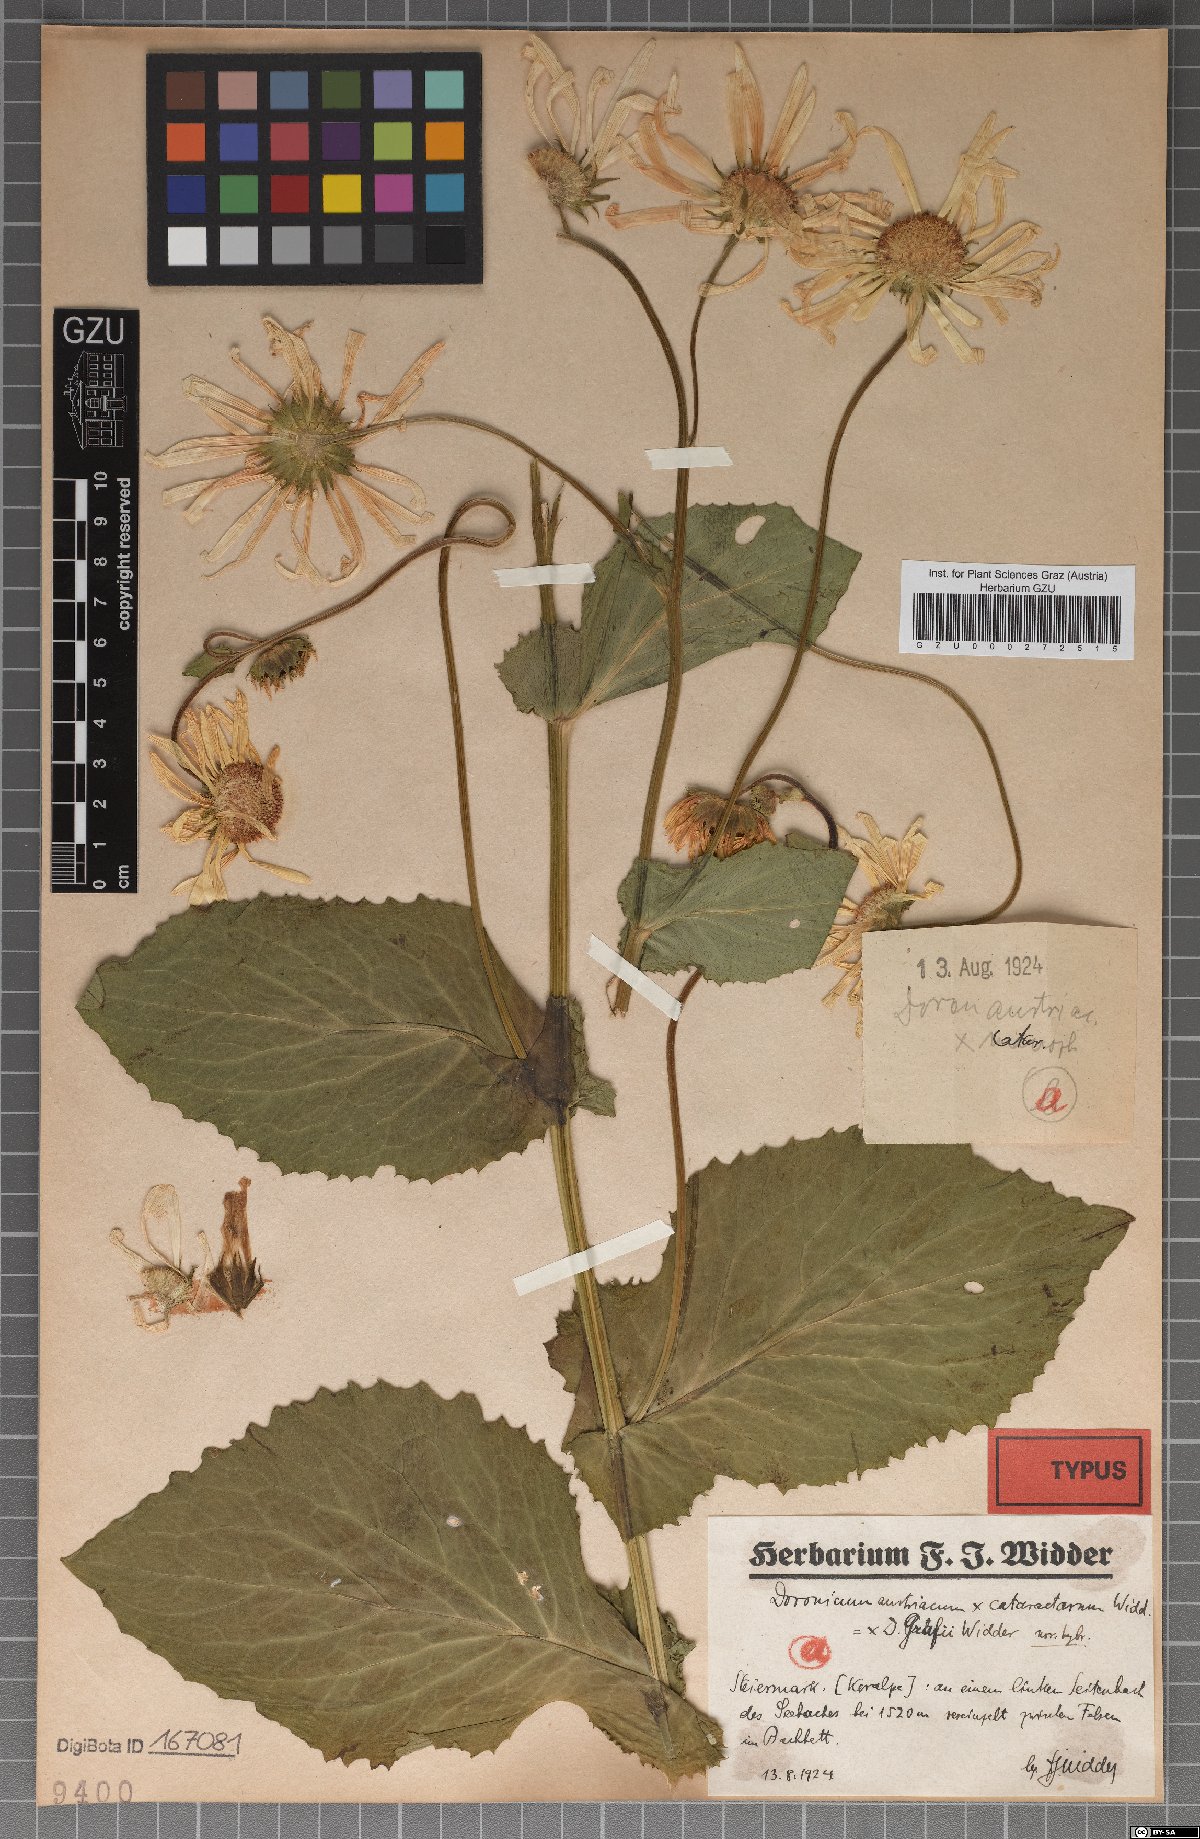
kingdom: Plantae
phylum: Tracheophyta
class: Magnoliopsida
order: Asterales
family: Asteraceae
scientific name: Asteraceae
